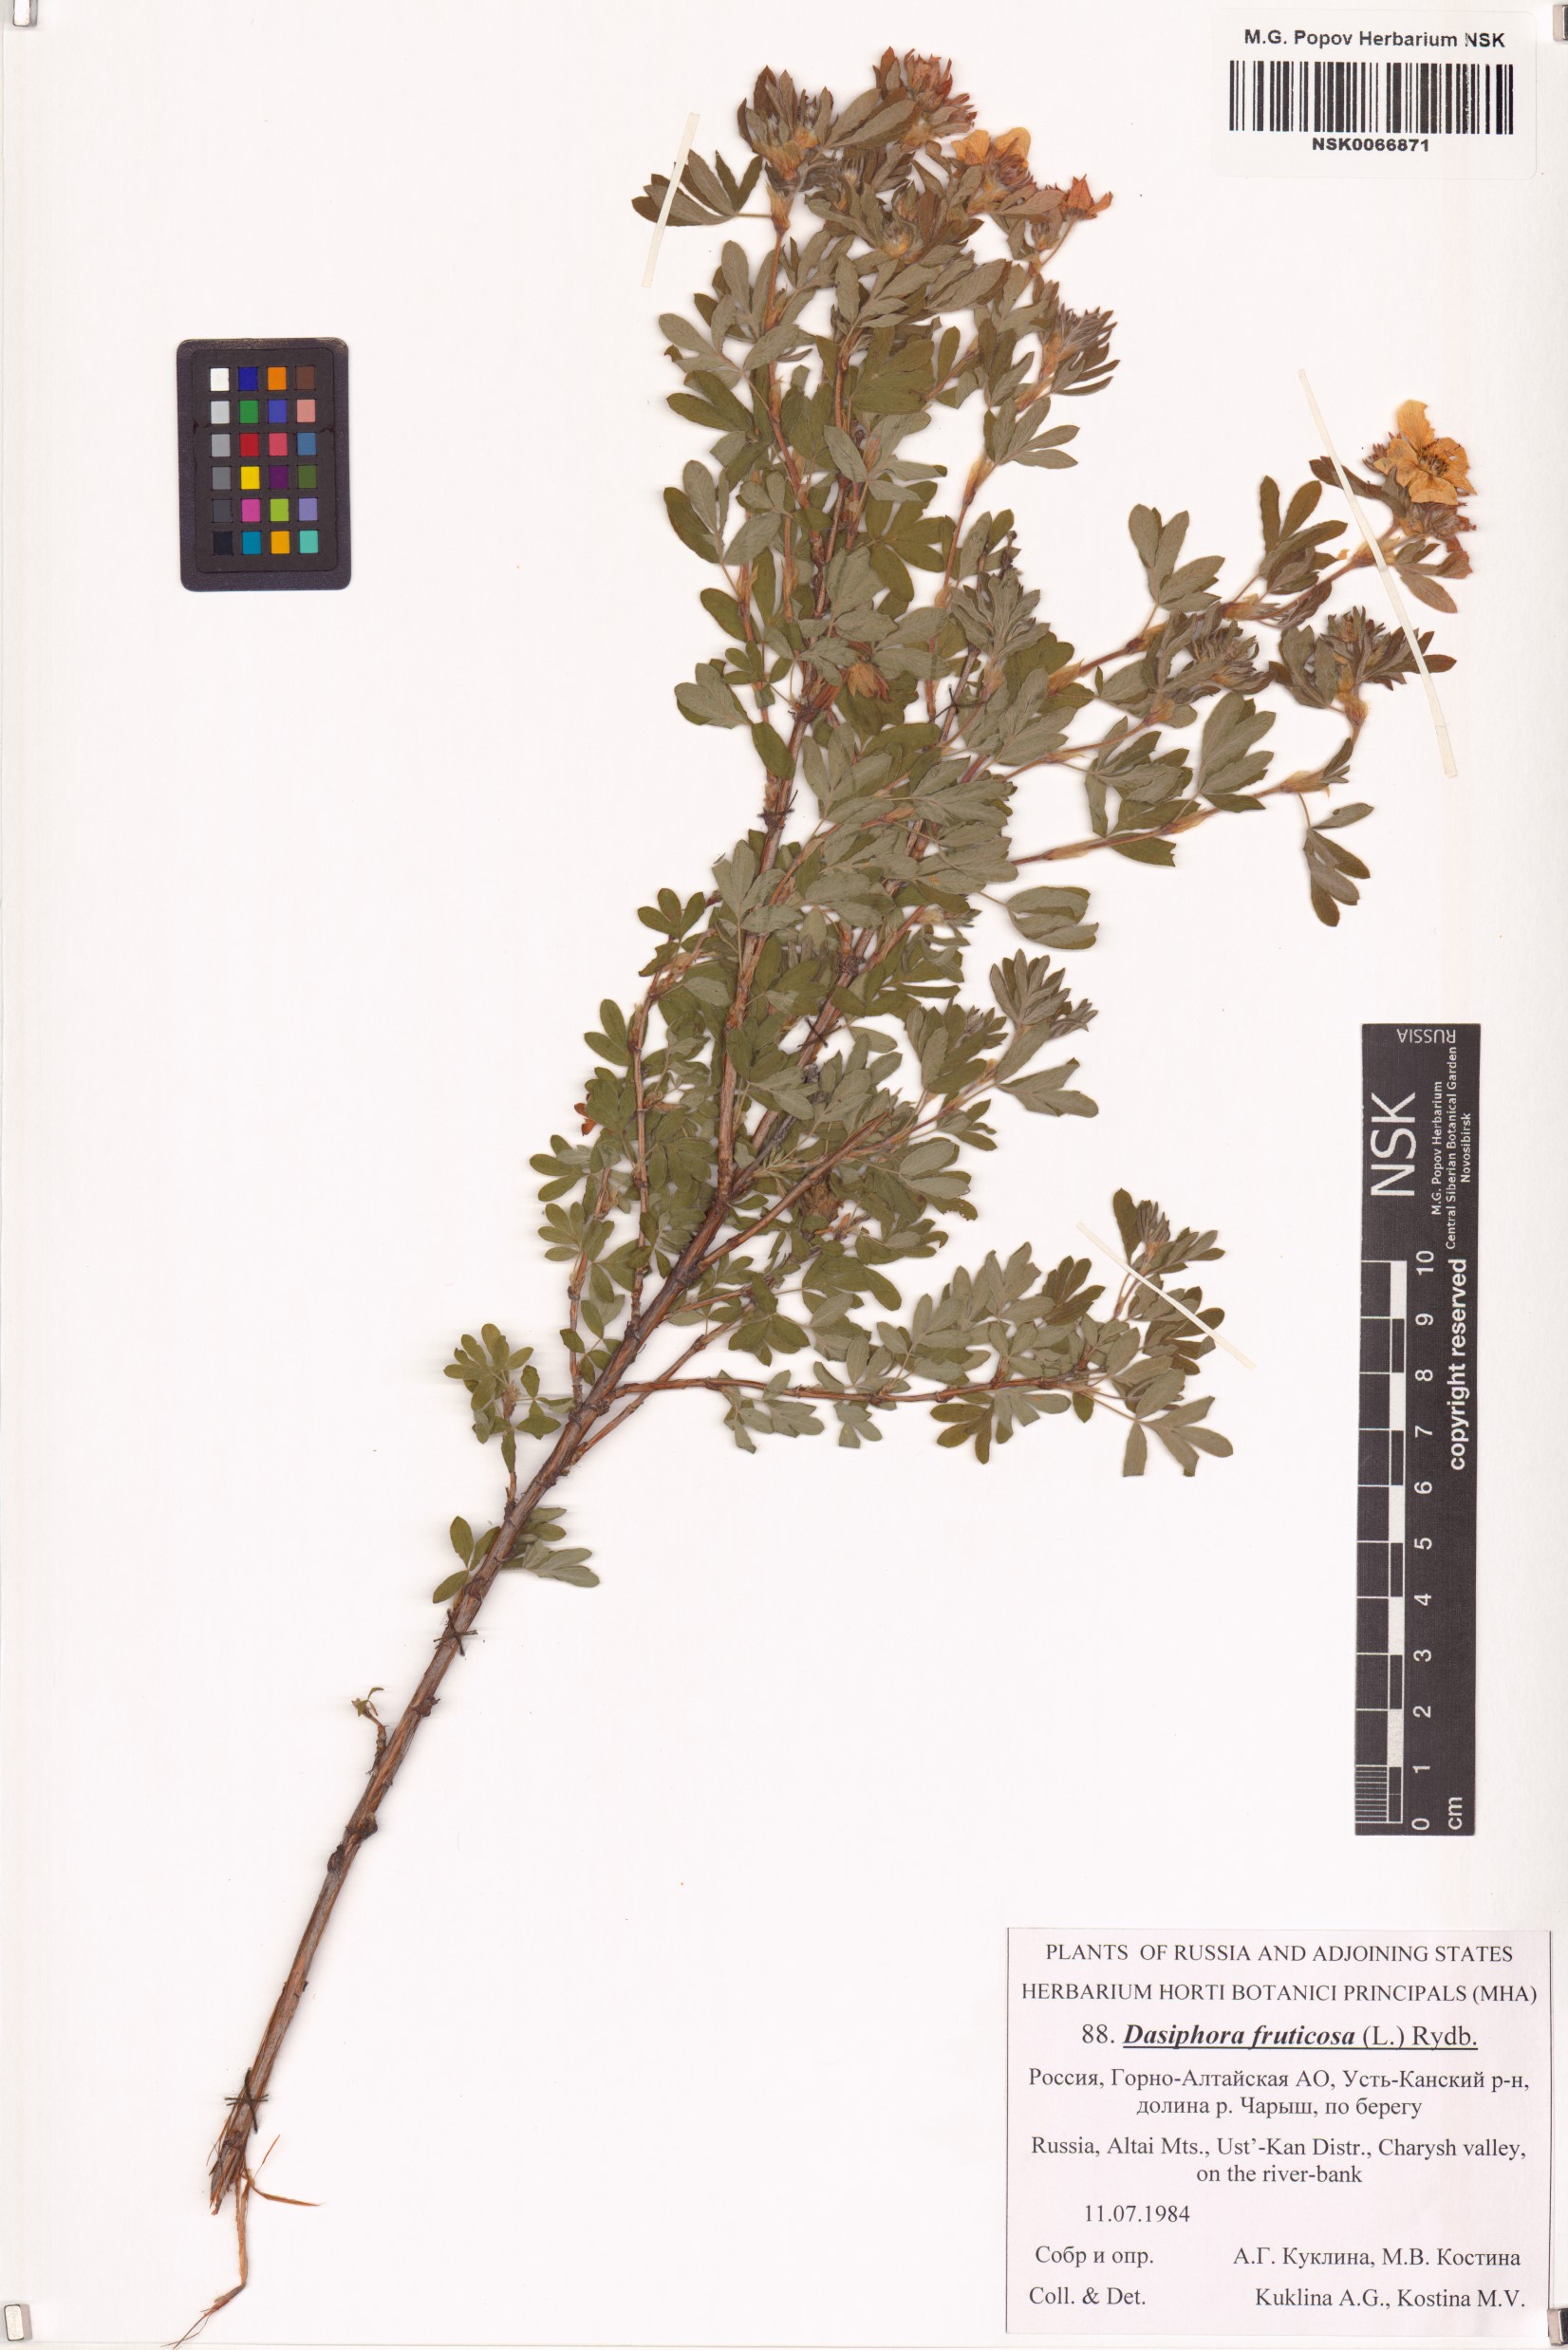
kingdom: Plantae
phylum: Tracheophyta
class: Magnoliopsida
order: Rosales
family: Rosaceae
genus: Dasiphora
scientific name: Dasiphora fruticosa
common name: Shrubby cinquefoil
